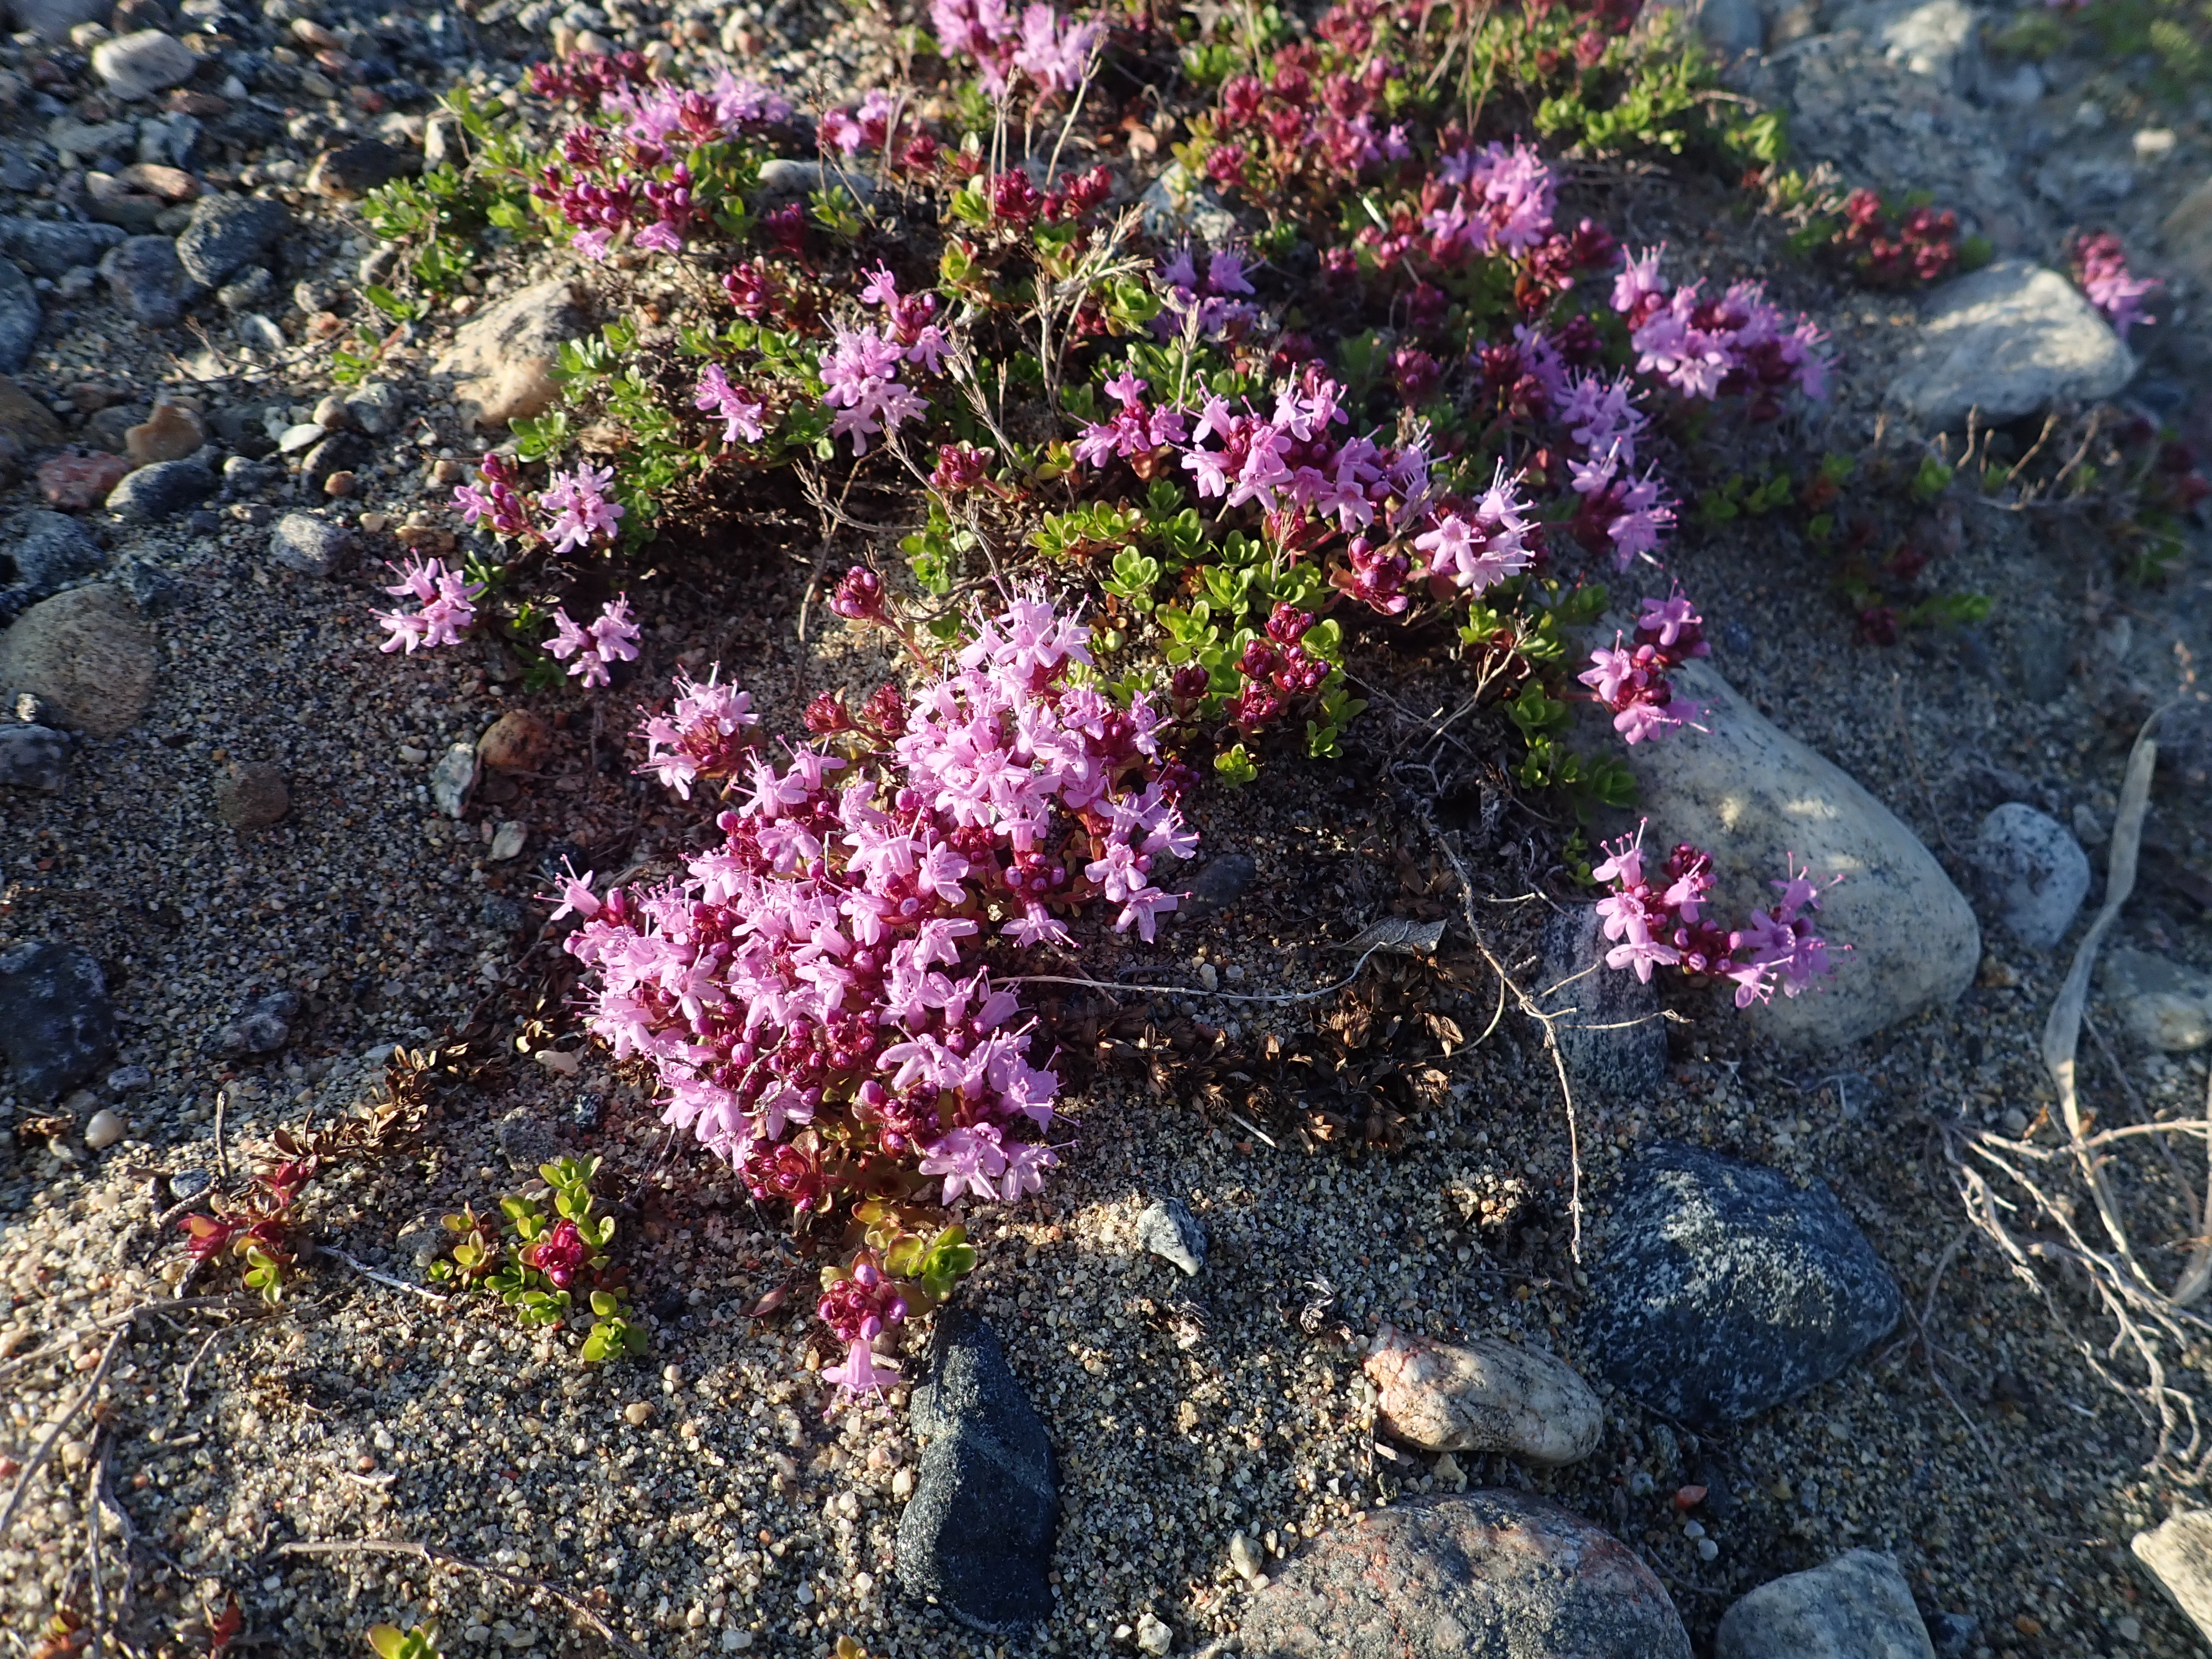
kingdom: Plantae
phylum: Tracheophyta
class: Magnoliopsida
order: Lamiales
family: Lamiaceae
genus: Thymus
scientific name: Thymus serpyllum
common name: Breckland thyme
